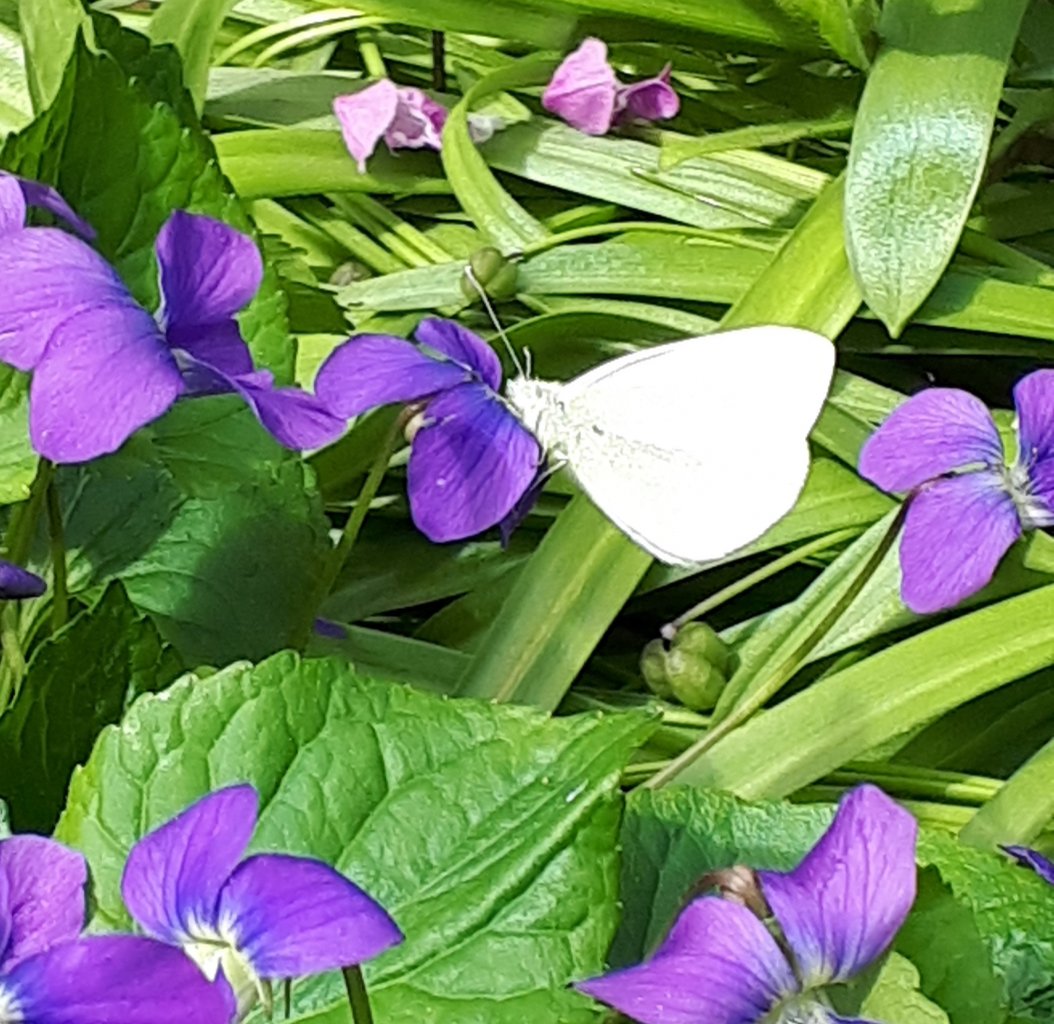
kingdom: Animalia
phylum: Arthropoda
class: Insecta
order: Lepidoptera
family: Pieridae
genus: Pieris
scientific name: Pieris rapae
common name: Cabbage White
